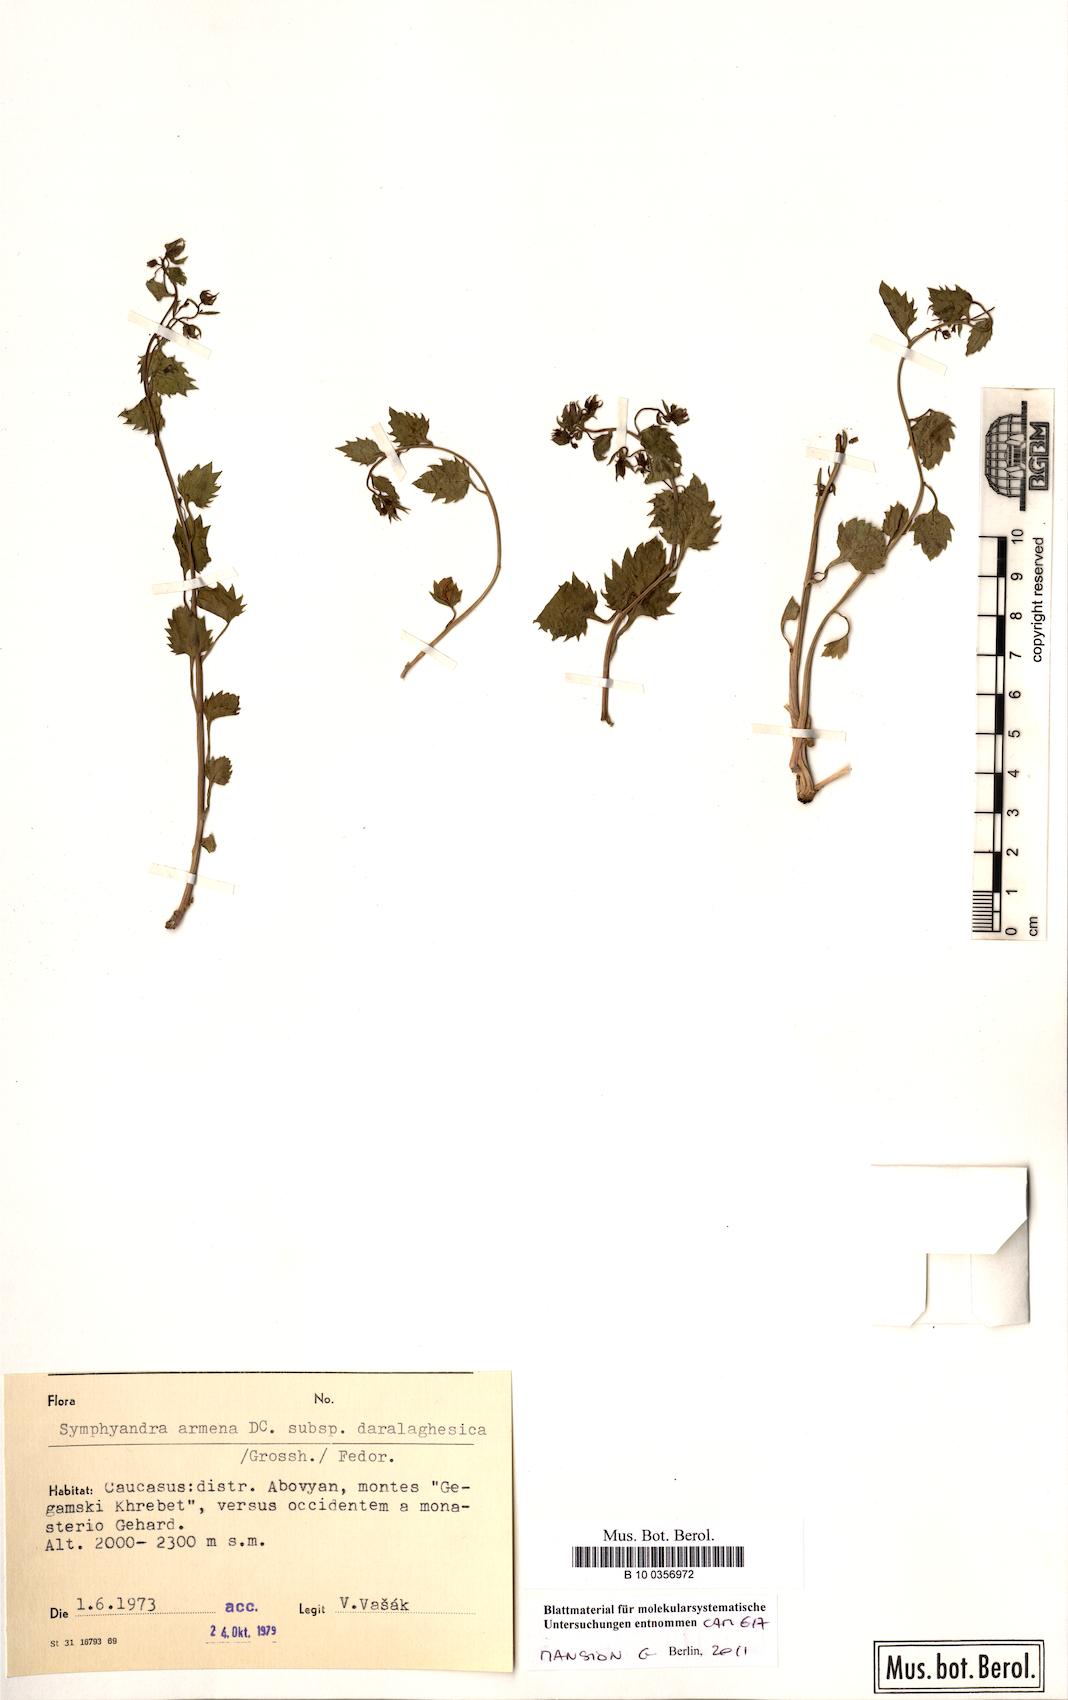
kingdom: Plantae
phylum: Tracheophyta
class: Magnoliopsida
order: Asterales
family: Campanulaceae
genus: Campanula
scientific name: Campanula armena
